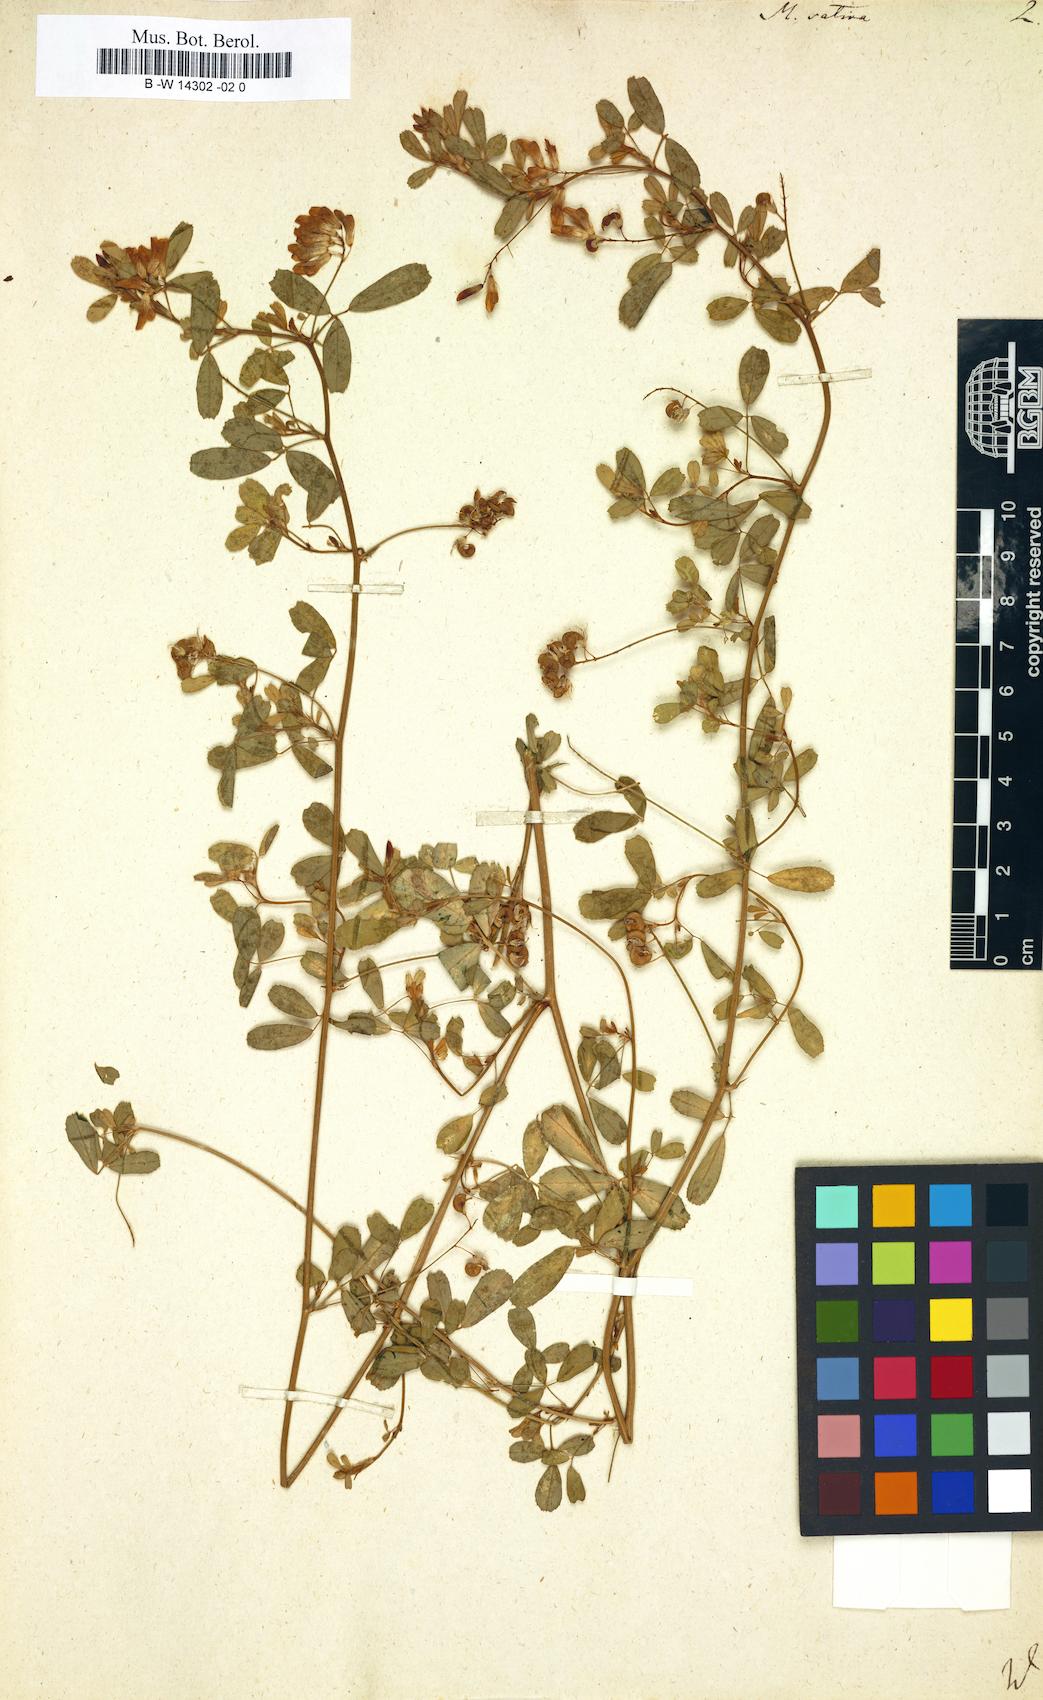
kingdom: Plantae
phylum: Tracheophyta
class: Magnoliopsida
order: Fabales
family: Fabaceae
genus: Medicago
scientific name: Medicago sativa
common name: Alfalfa
